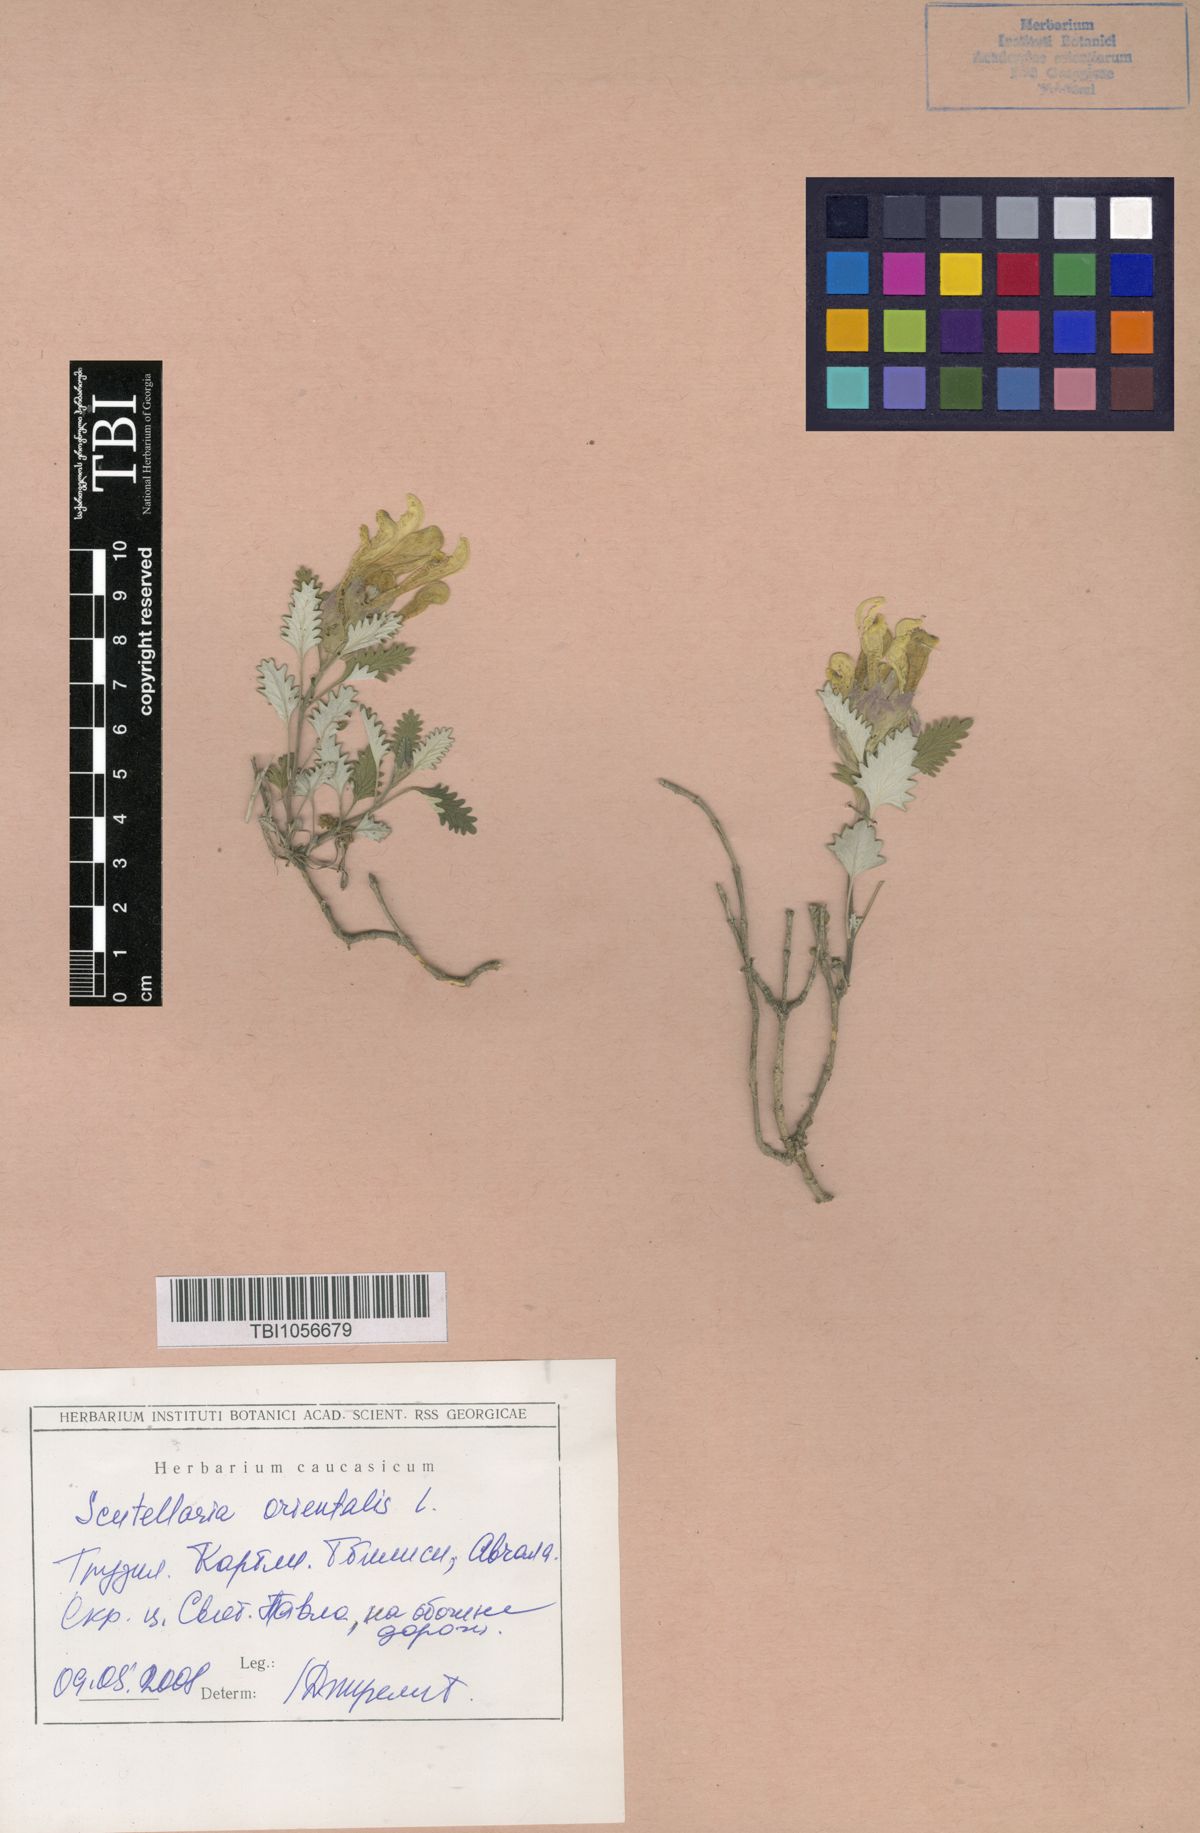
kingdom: Plantae
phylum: Tracheophyta
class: Magnoliopsida
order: Lamiales
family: Lamiaceae
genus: Scutellaria
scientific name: Scutellaria orientalis
